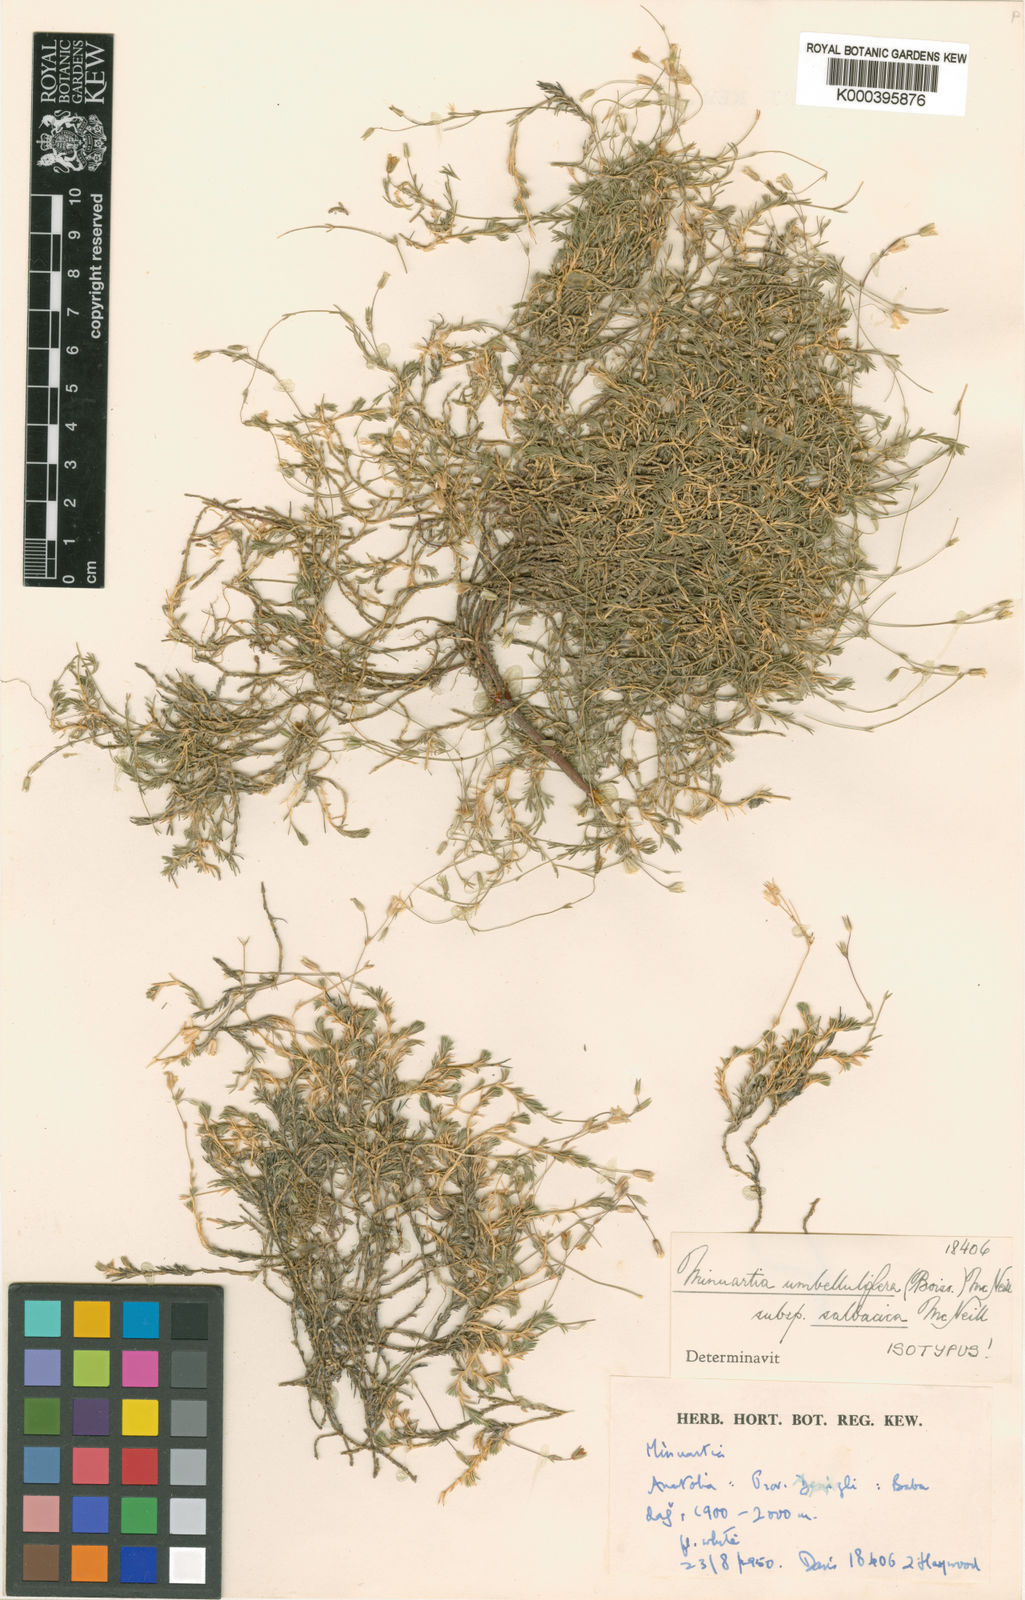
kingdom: Plantae
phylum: Tracheophyta
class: Magnoliopsida
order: Caryophyllales
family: Caryophyllaceae
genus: Sabulina
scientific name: Sabulina umbellulifera
